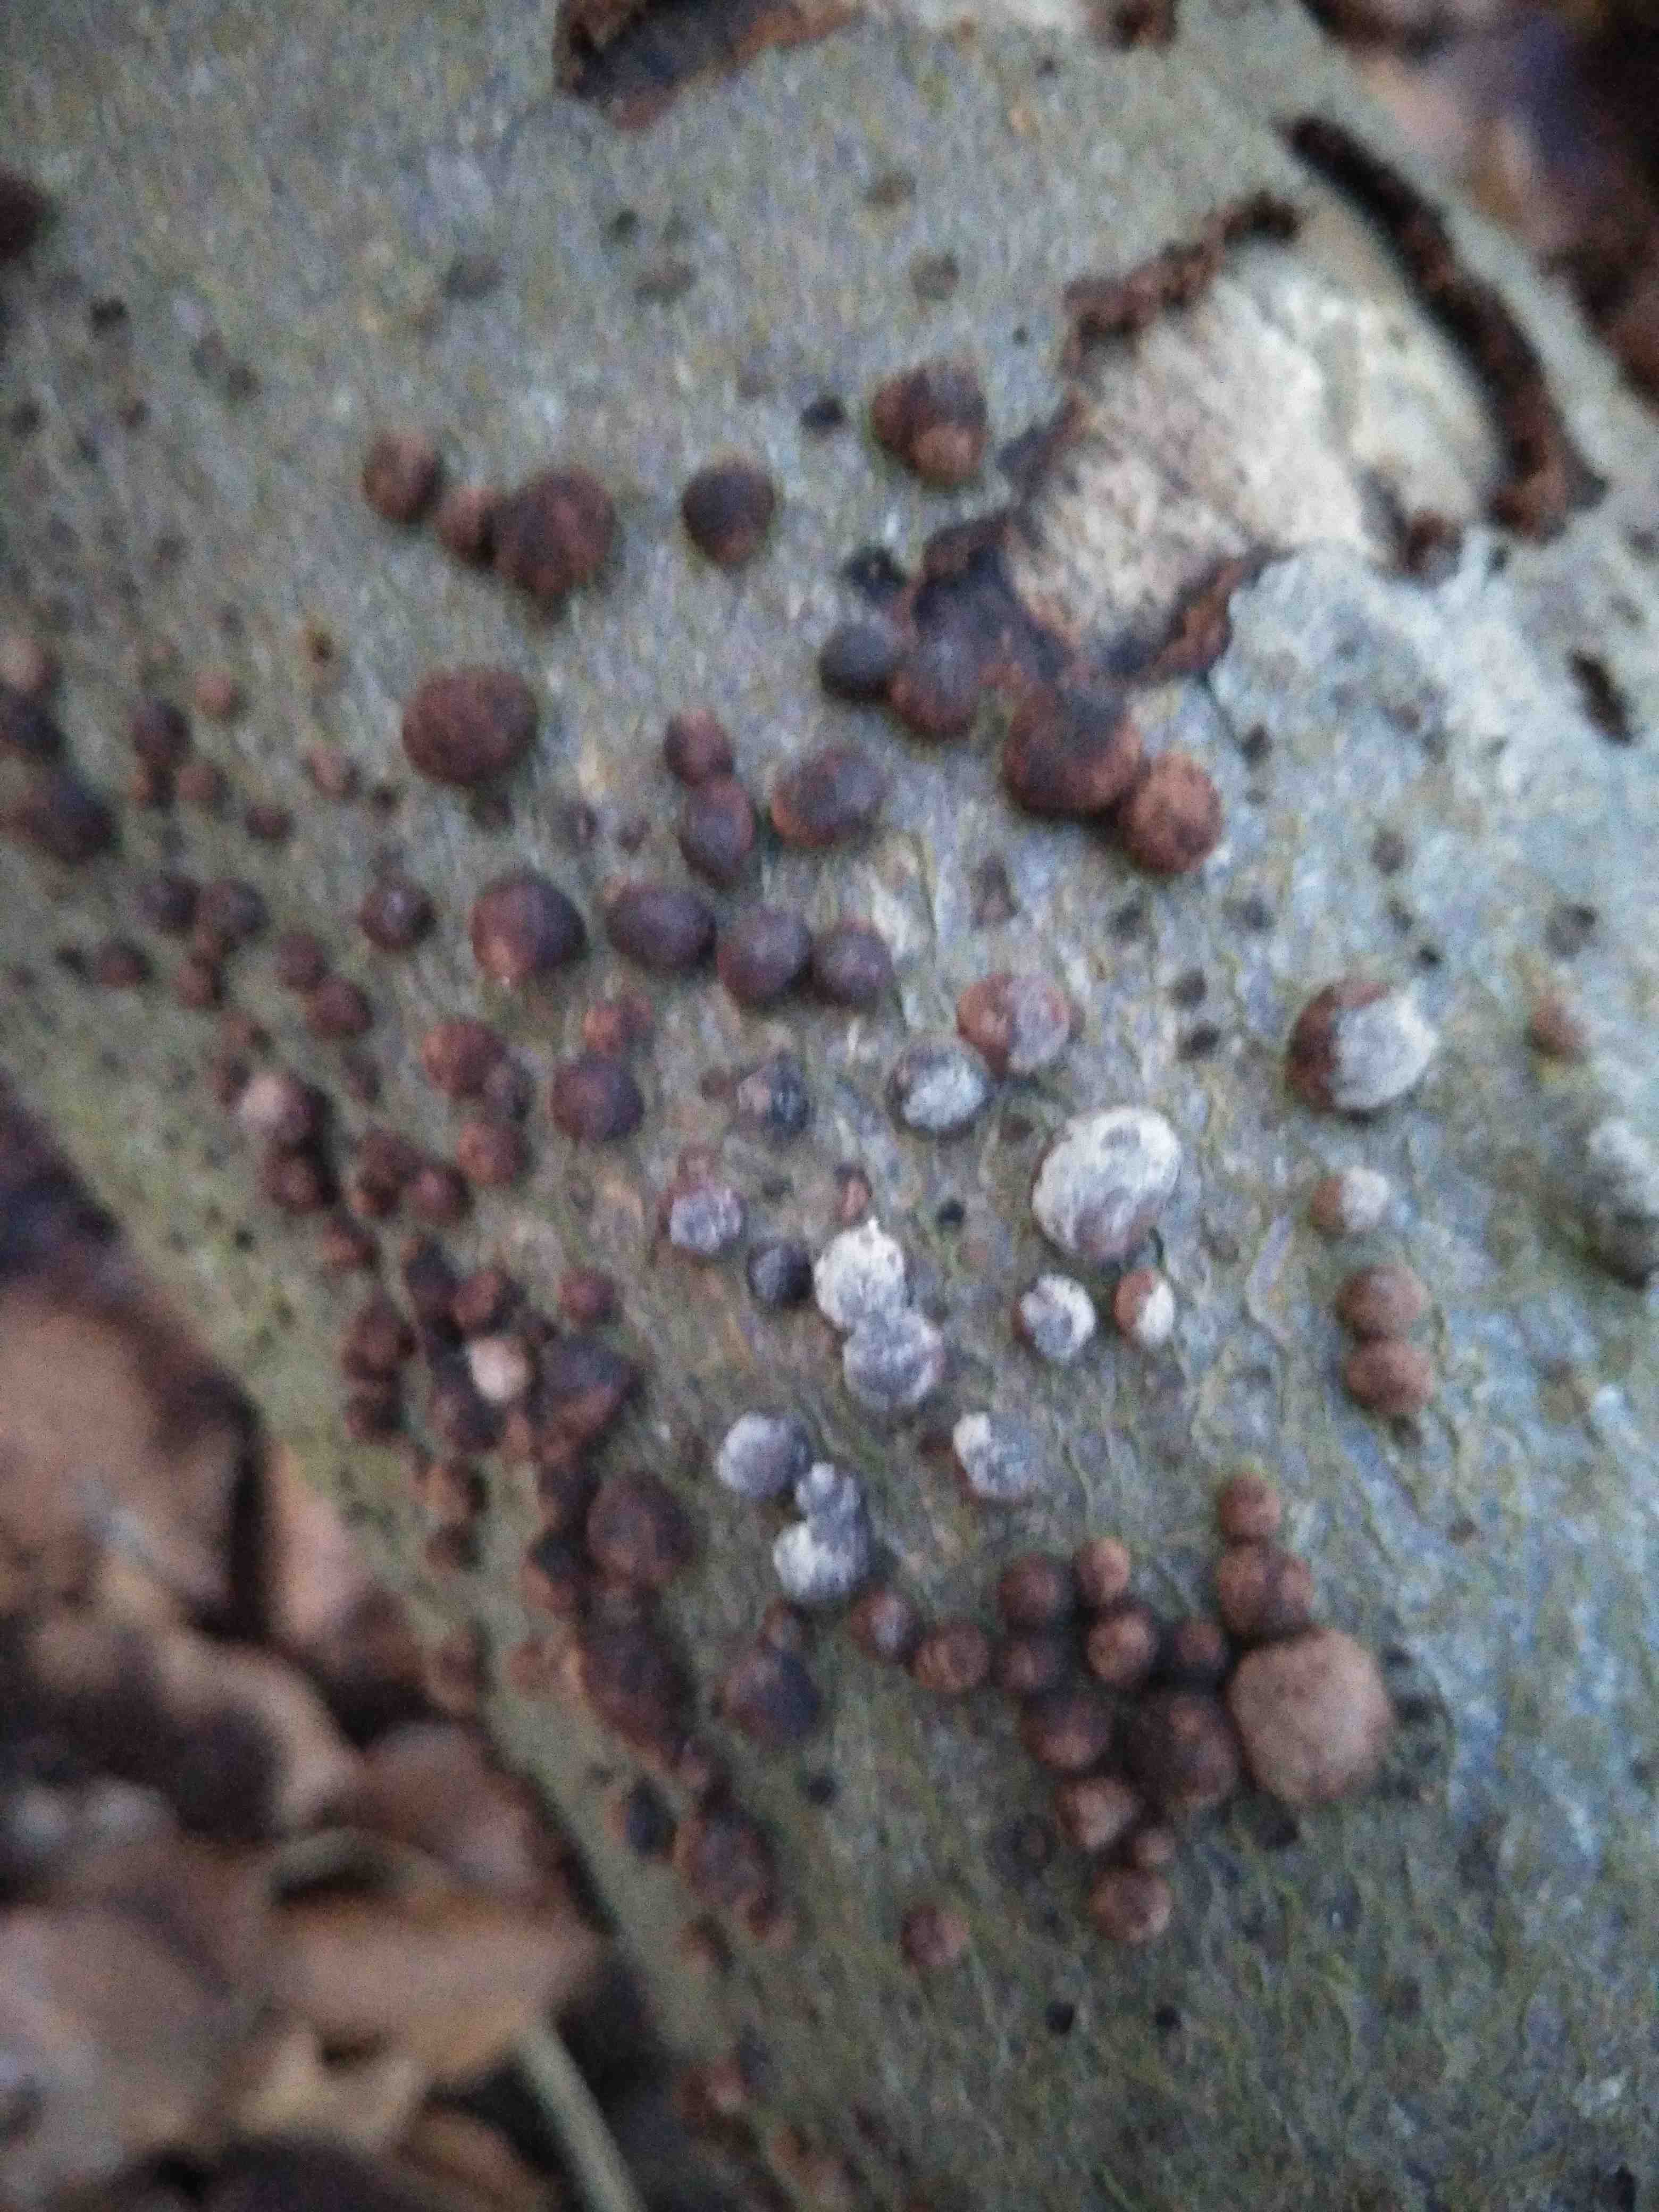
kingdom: Fungi
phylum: Ascomycota
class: Sordariomycetes
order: Xylariales
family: Hypoxylaceae
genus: Hypoxylon
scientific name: Hypoxylon fragiforme
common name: kuljordbær
